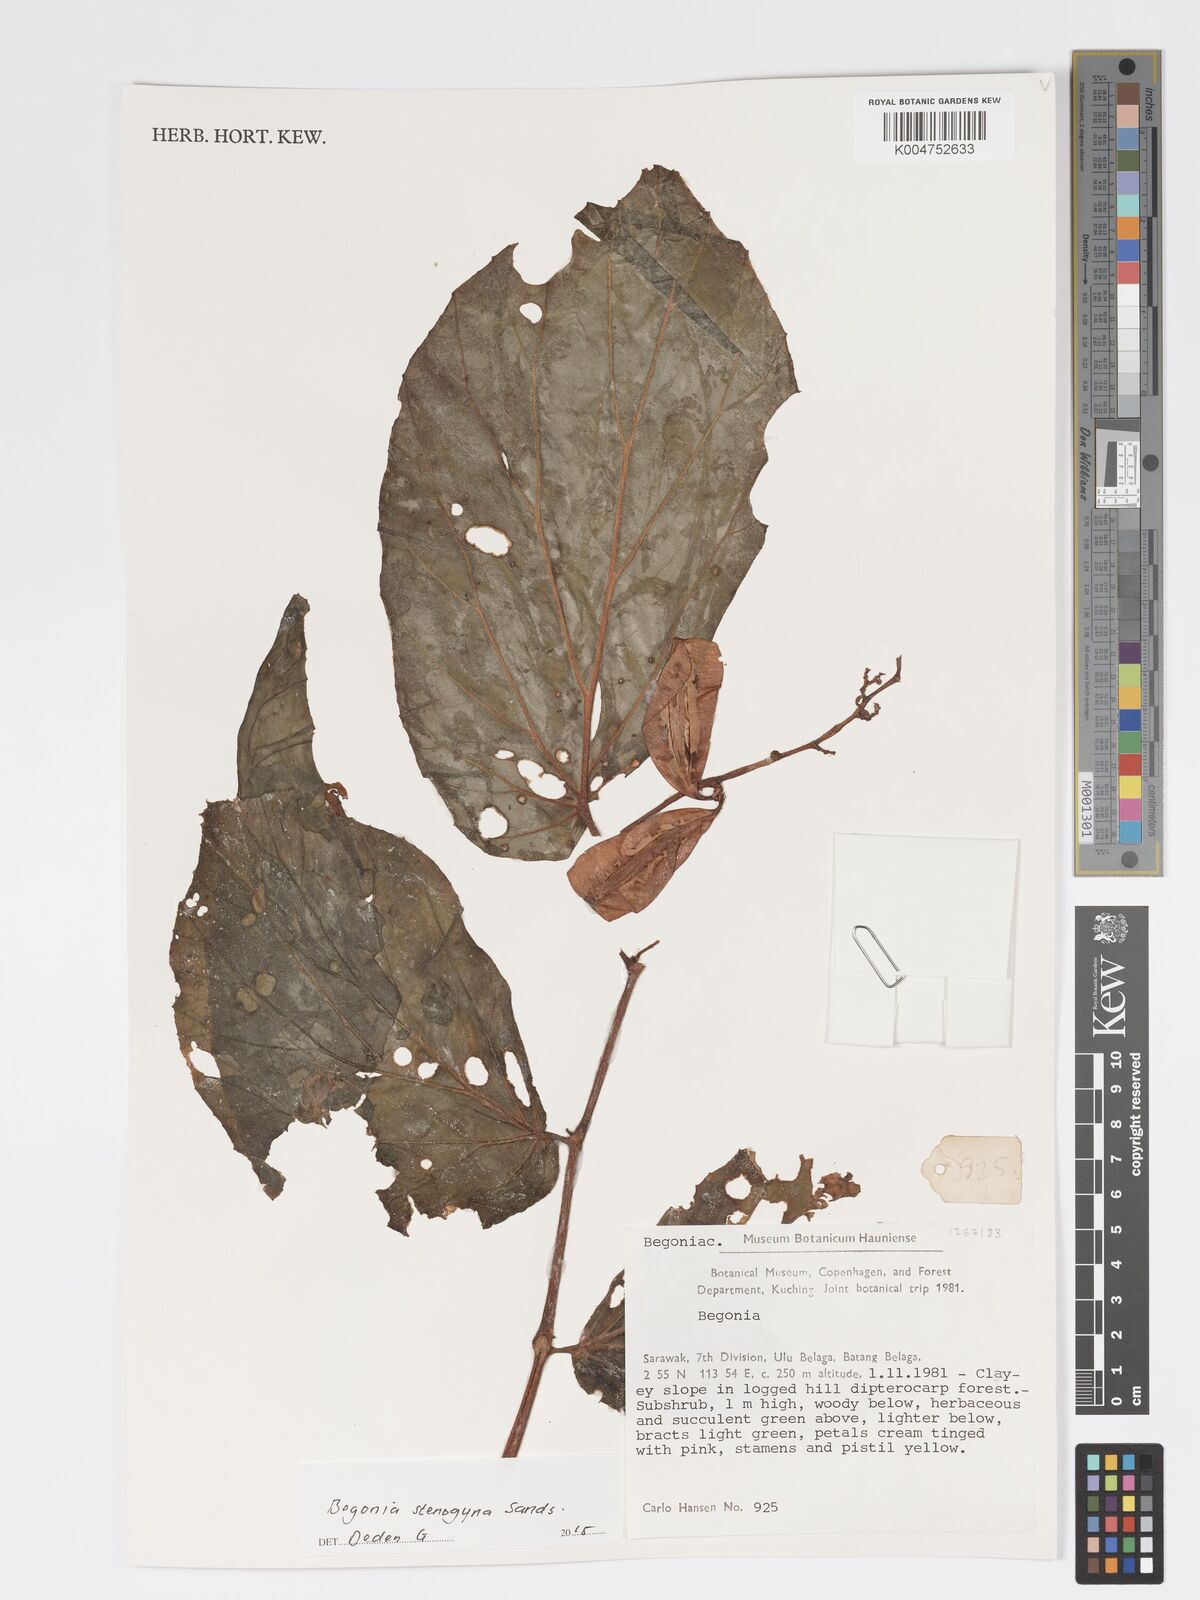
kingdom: Plantae
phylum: Tracheophyta
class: Magnoliopsida
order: Cucurbitales
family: Begoniaceae
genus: Begonia
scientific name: Begonia stenogyna
